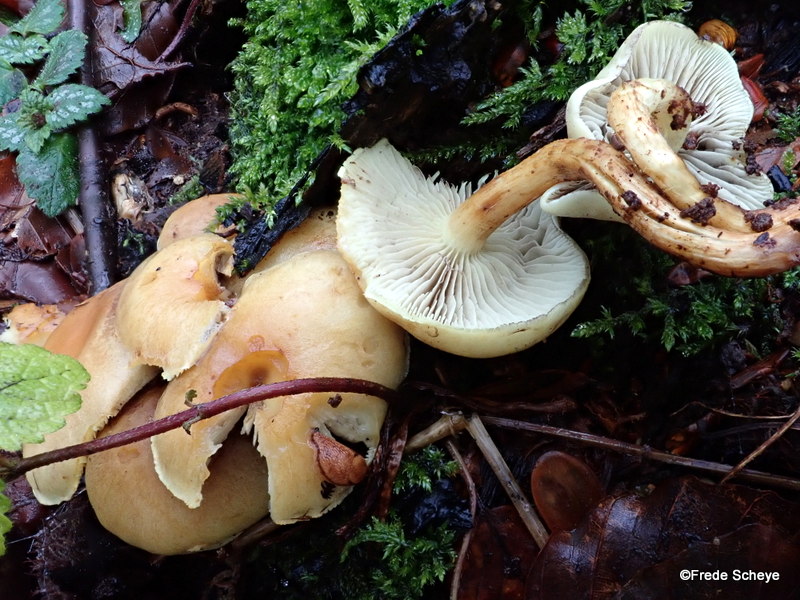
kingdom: Fungi
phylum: Basidiomycota
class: Agaricomycetes
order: Agaricales
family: Strophariaceae
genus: Hypholoma
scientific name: Hypholoma fasciculare
